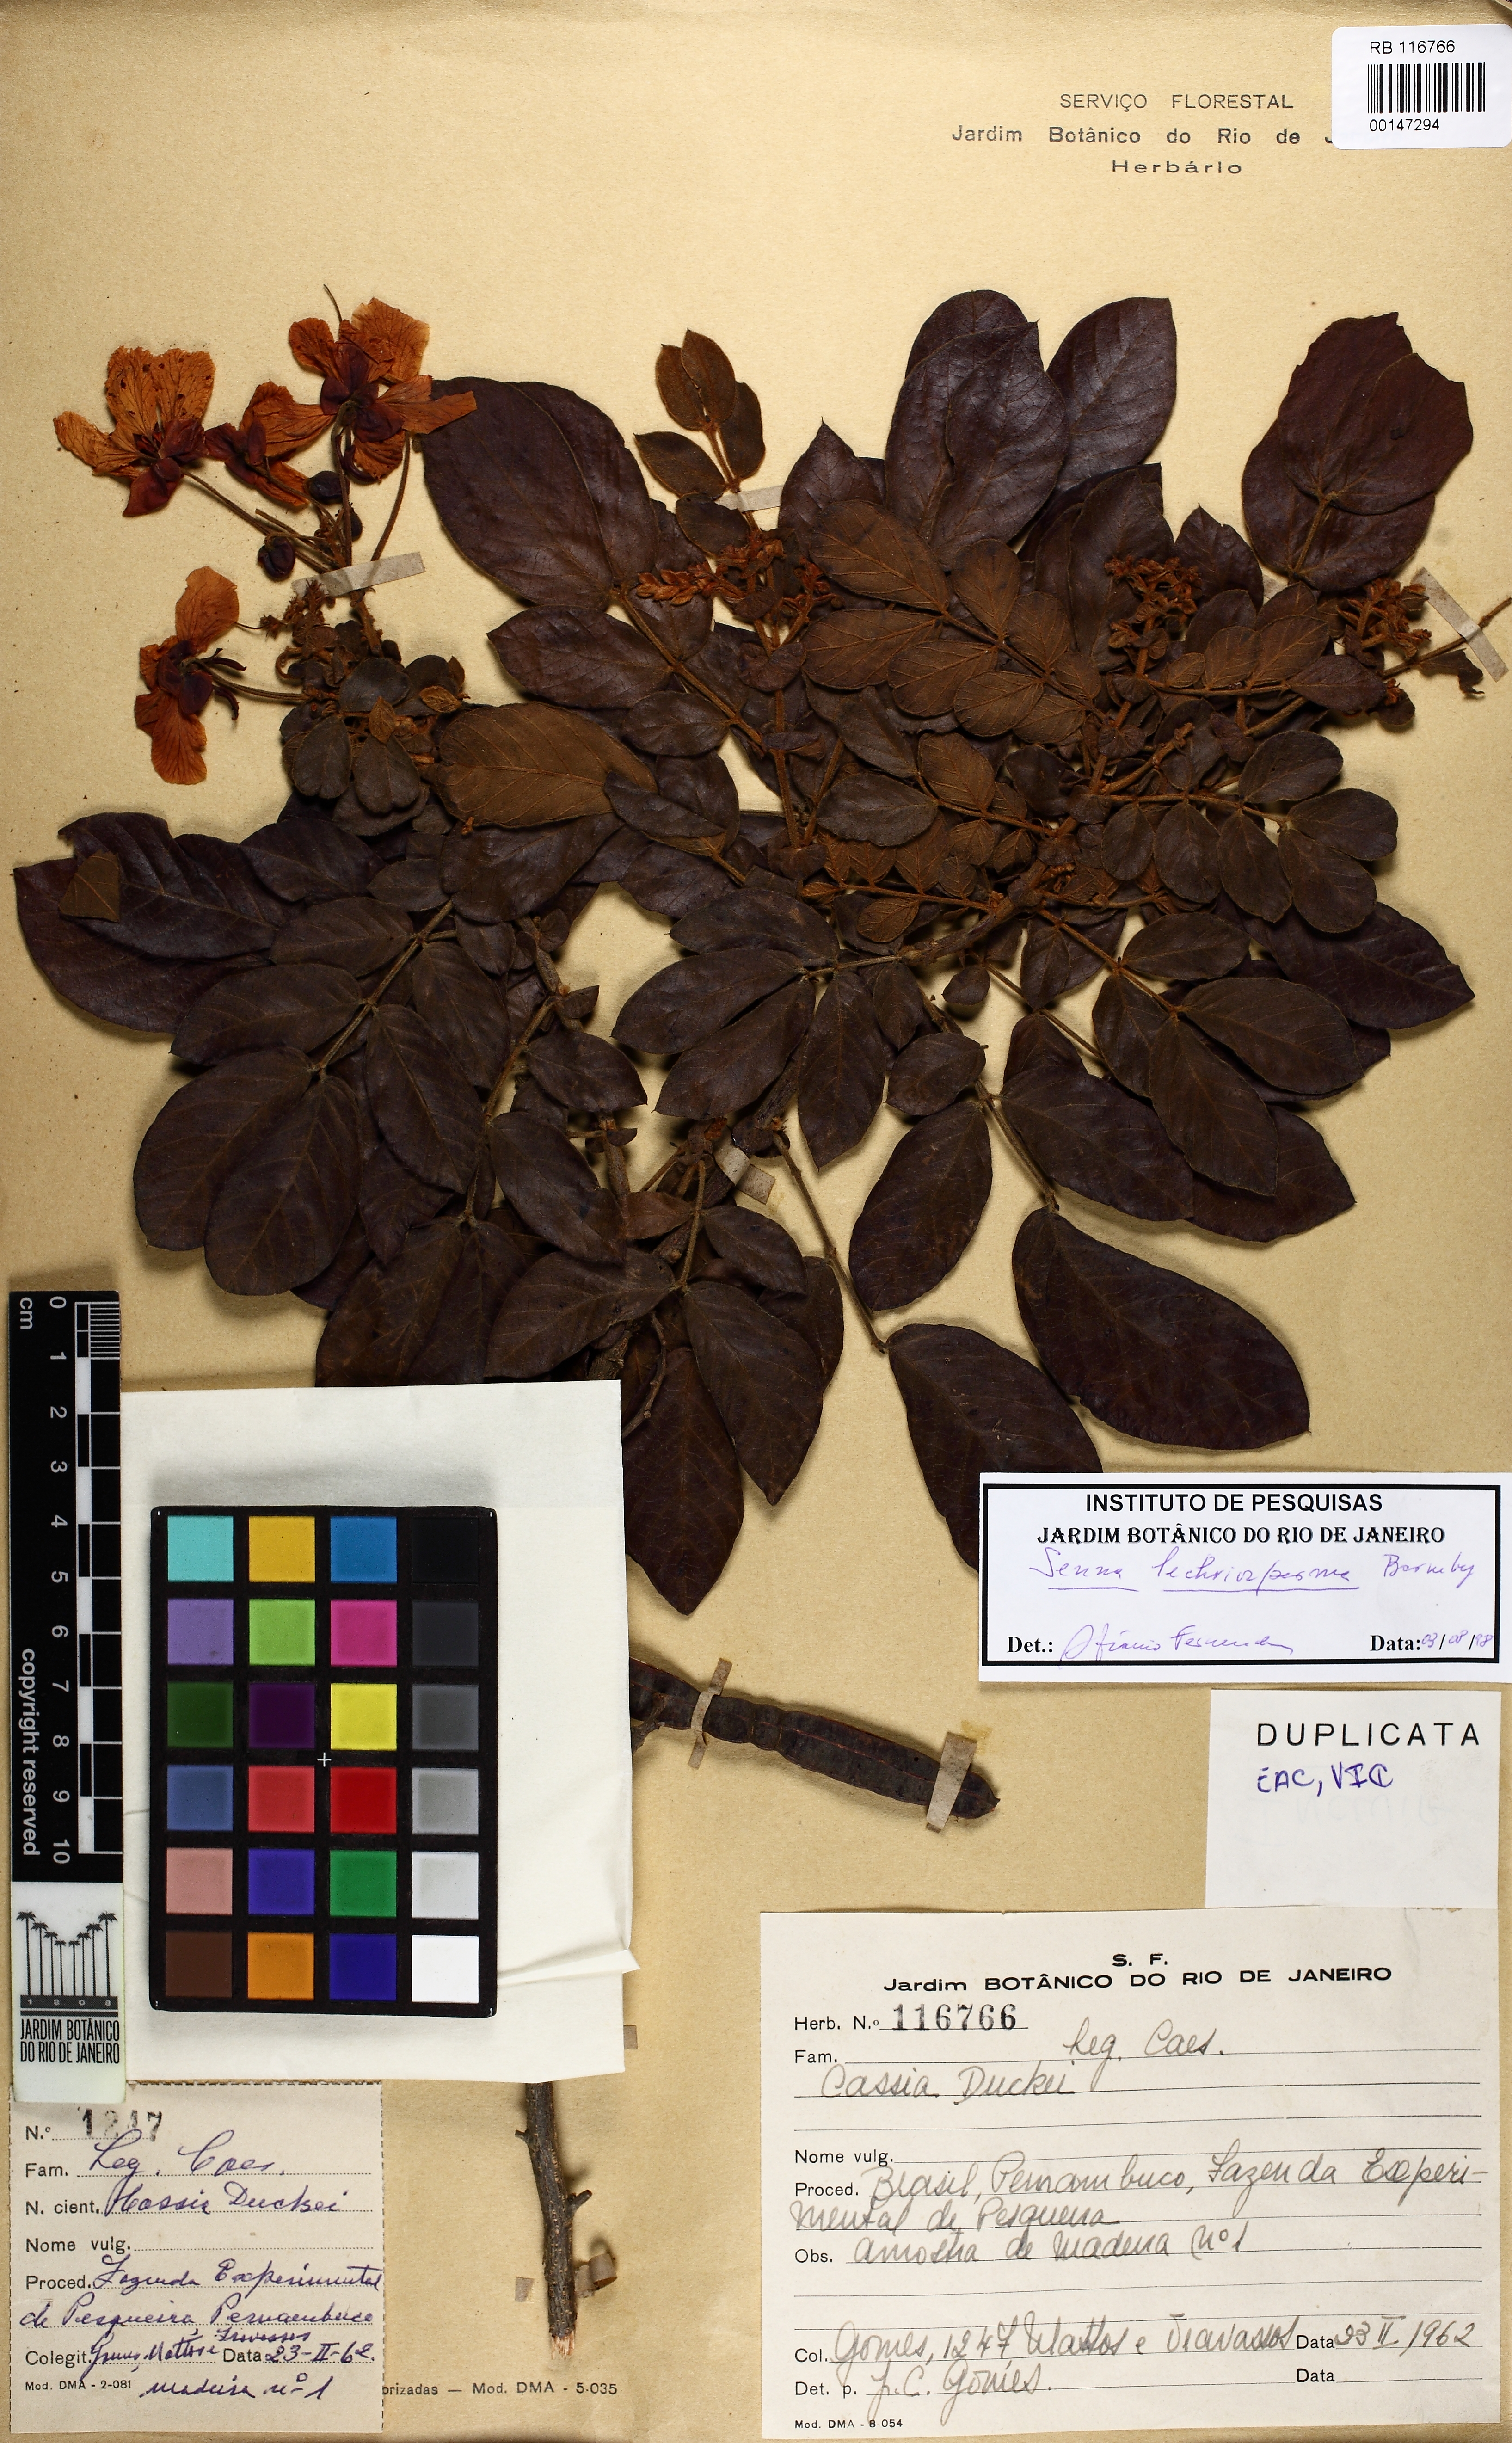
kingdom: Plantae
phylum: Tracheophyta
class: Magnoliopsida
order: Fabales
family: Fabaceae
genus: Senna
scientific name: Senna lechriosperma
